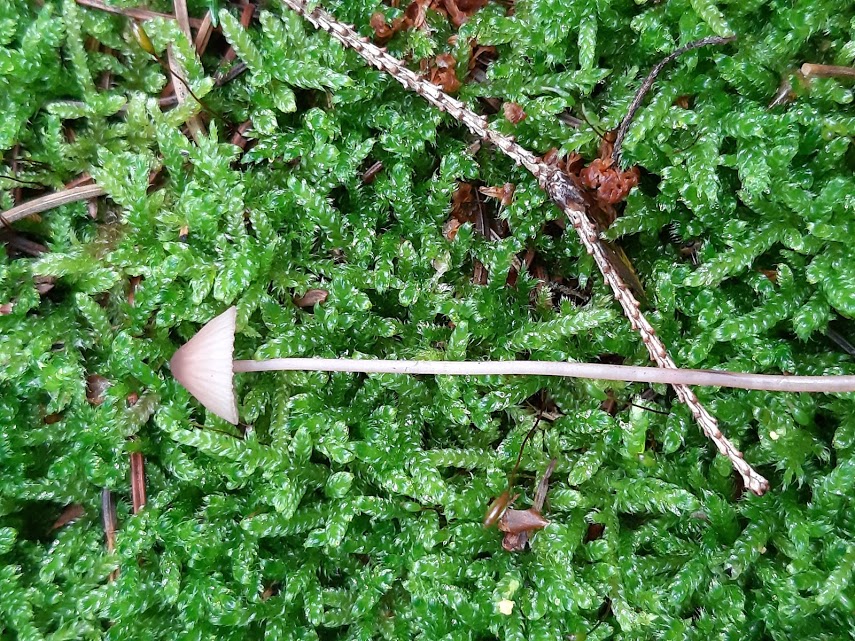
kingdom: Fungi
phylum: Basidiomycota
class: Agaricomycetes
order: Agaricales
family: Mycenaceae
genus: Mycena
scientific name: Mycena metata
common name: rødlig huesvamp
